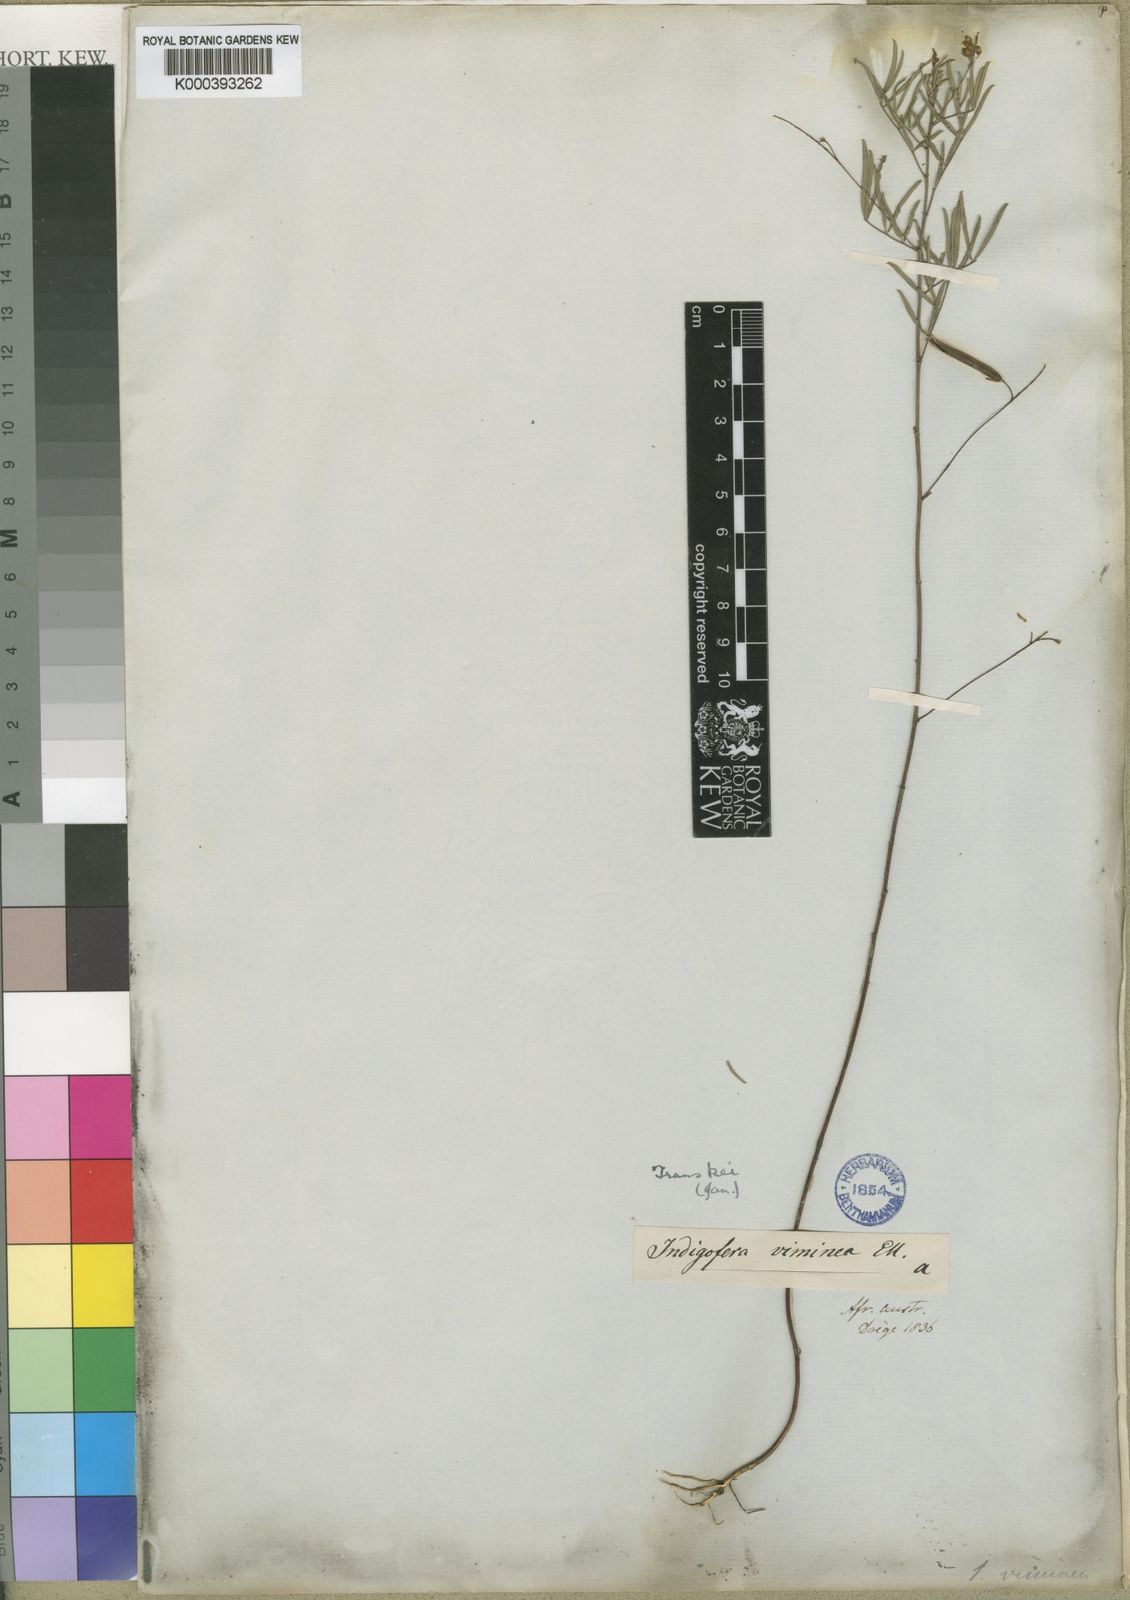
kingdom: Plantae
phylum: Tracheophyta
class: Magnoliopsida
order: Fabales
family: Fabaceae
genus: Indigofera
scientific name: Indigofera punctata
